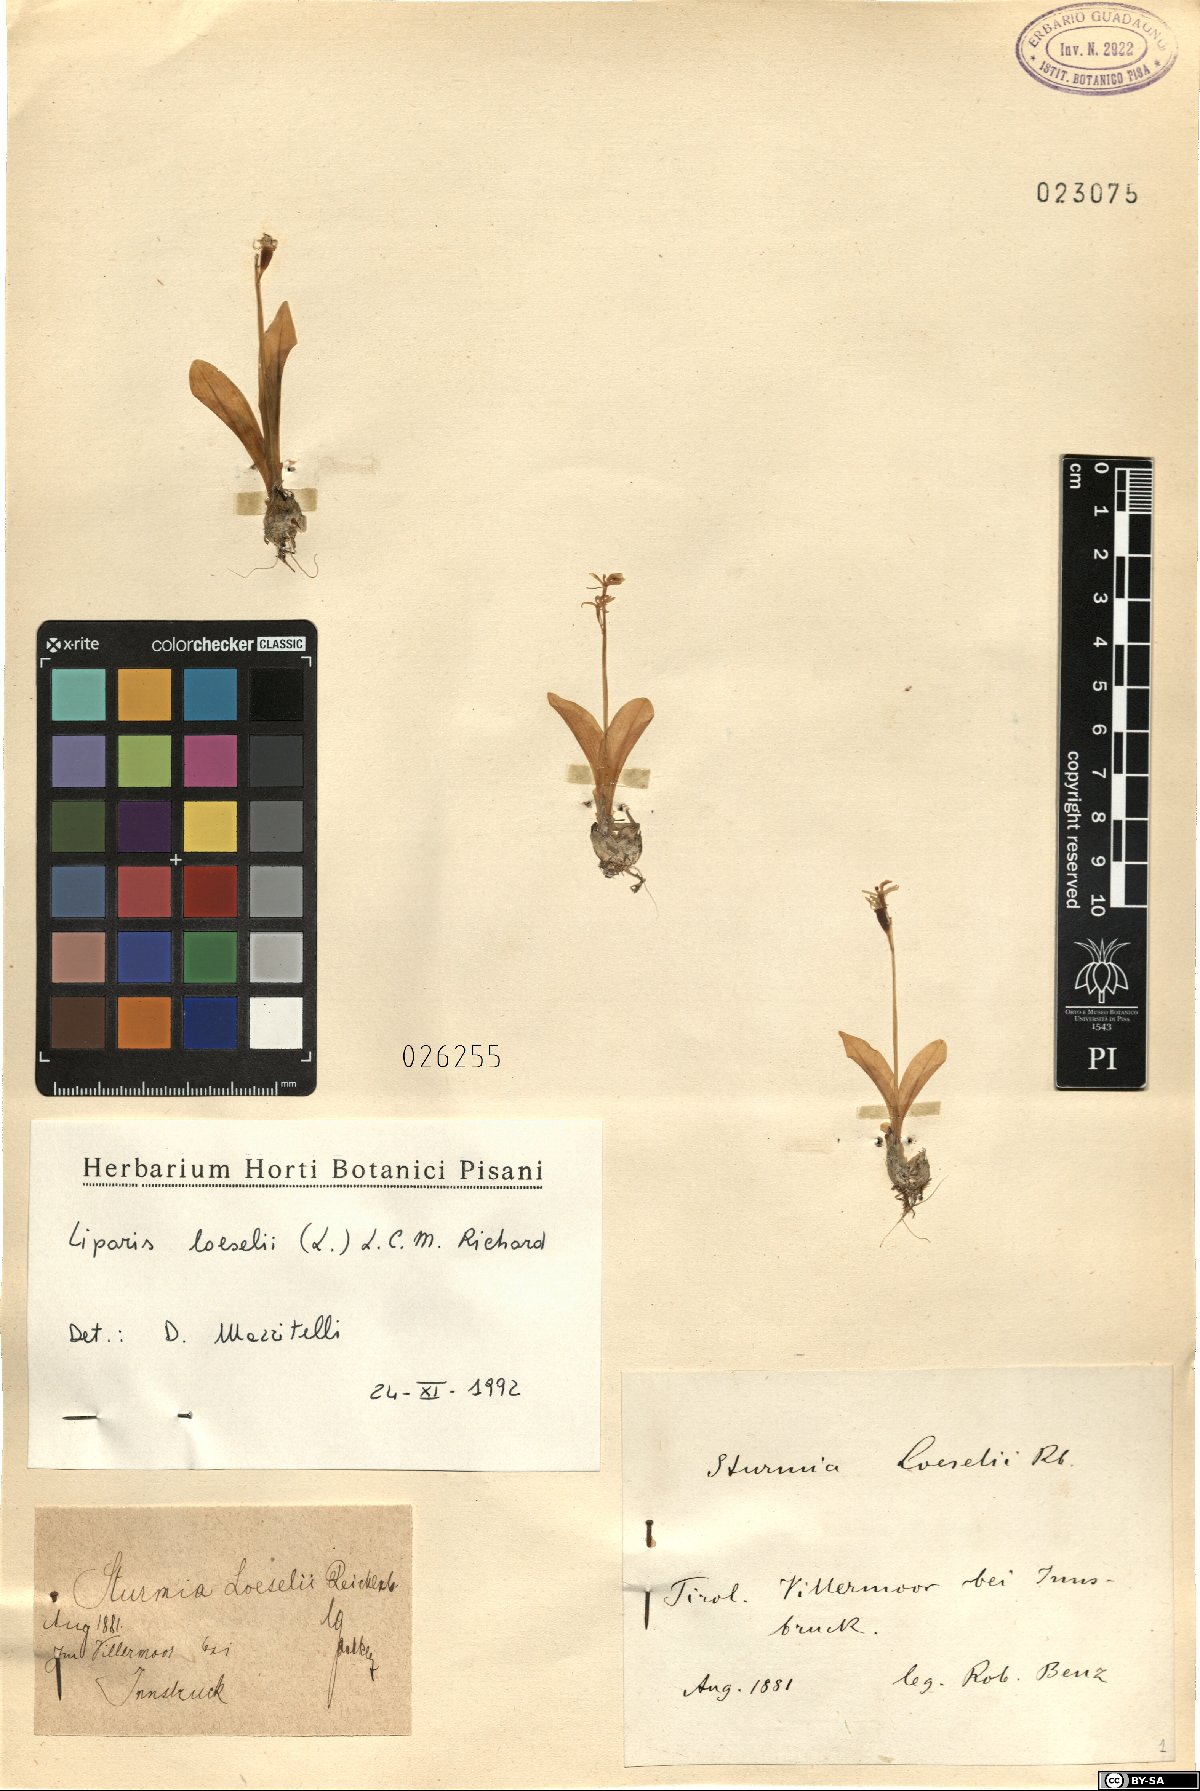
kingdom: Animalia
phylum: Arthropoda
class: Insecta
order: Coleoptera
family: Curculionidae
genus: Liparis
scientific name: Liparis loeselii
